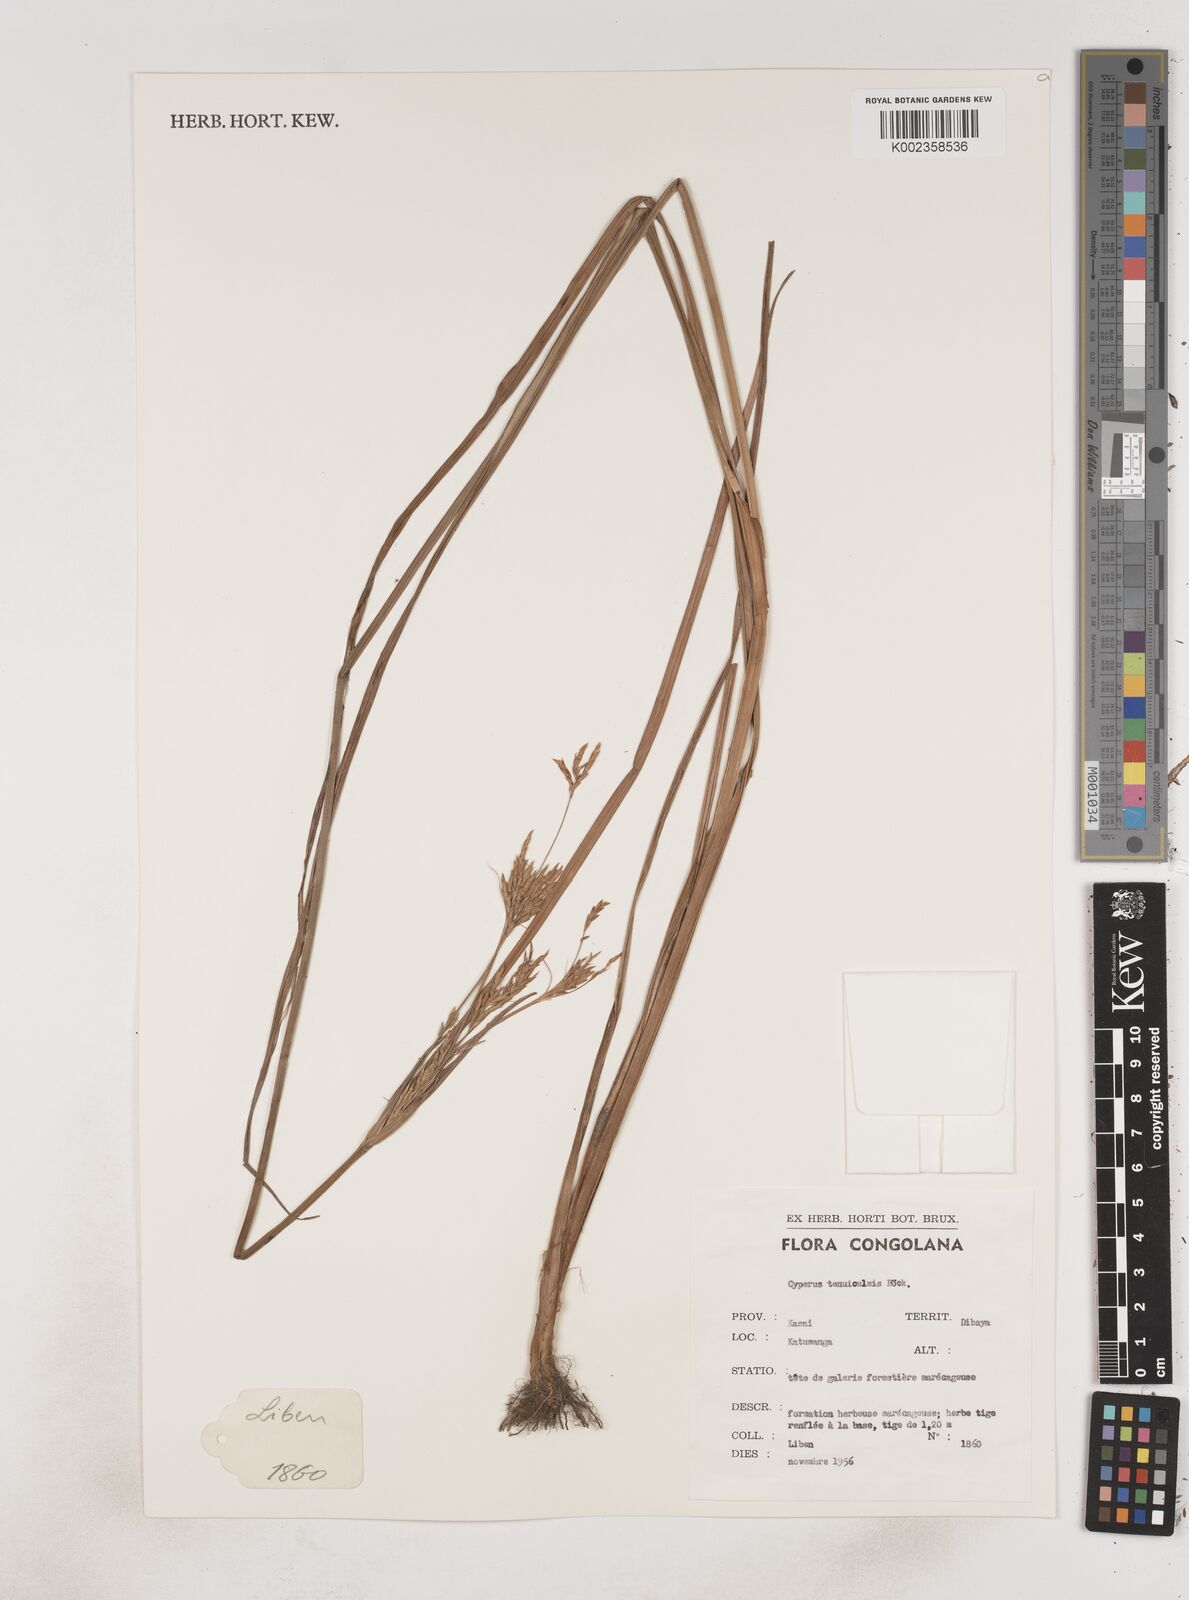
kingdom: Plantae
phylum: Tracheophyta
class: Liliopsida
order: Poales
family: Cyperaceae
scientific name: Cyperaceae
